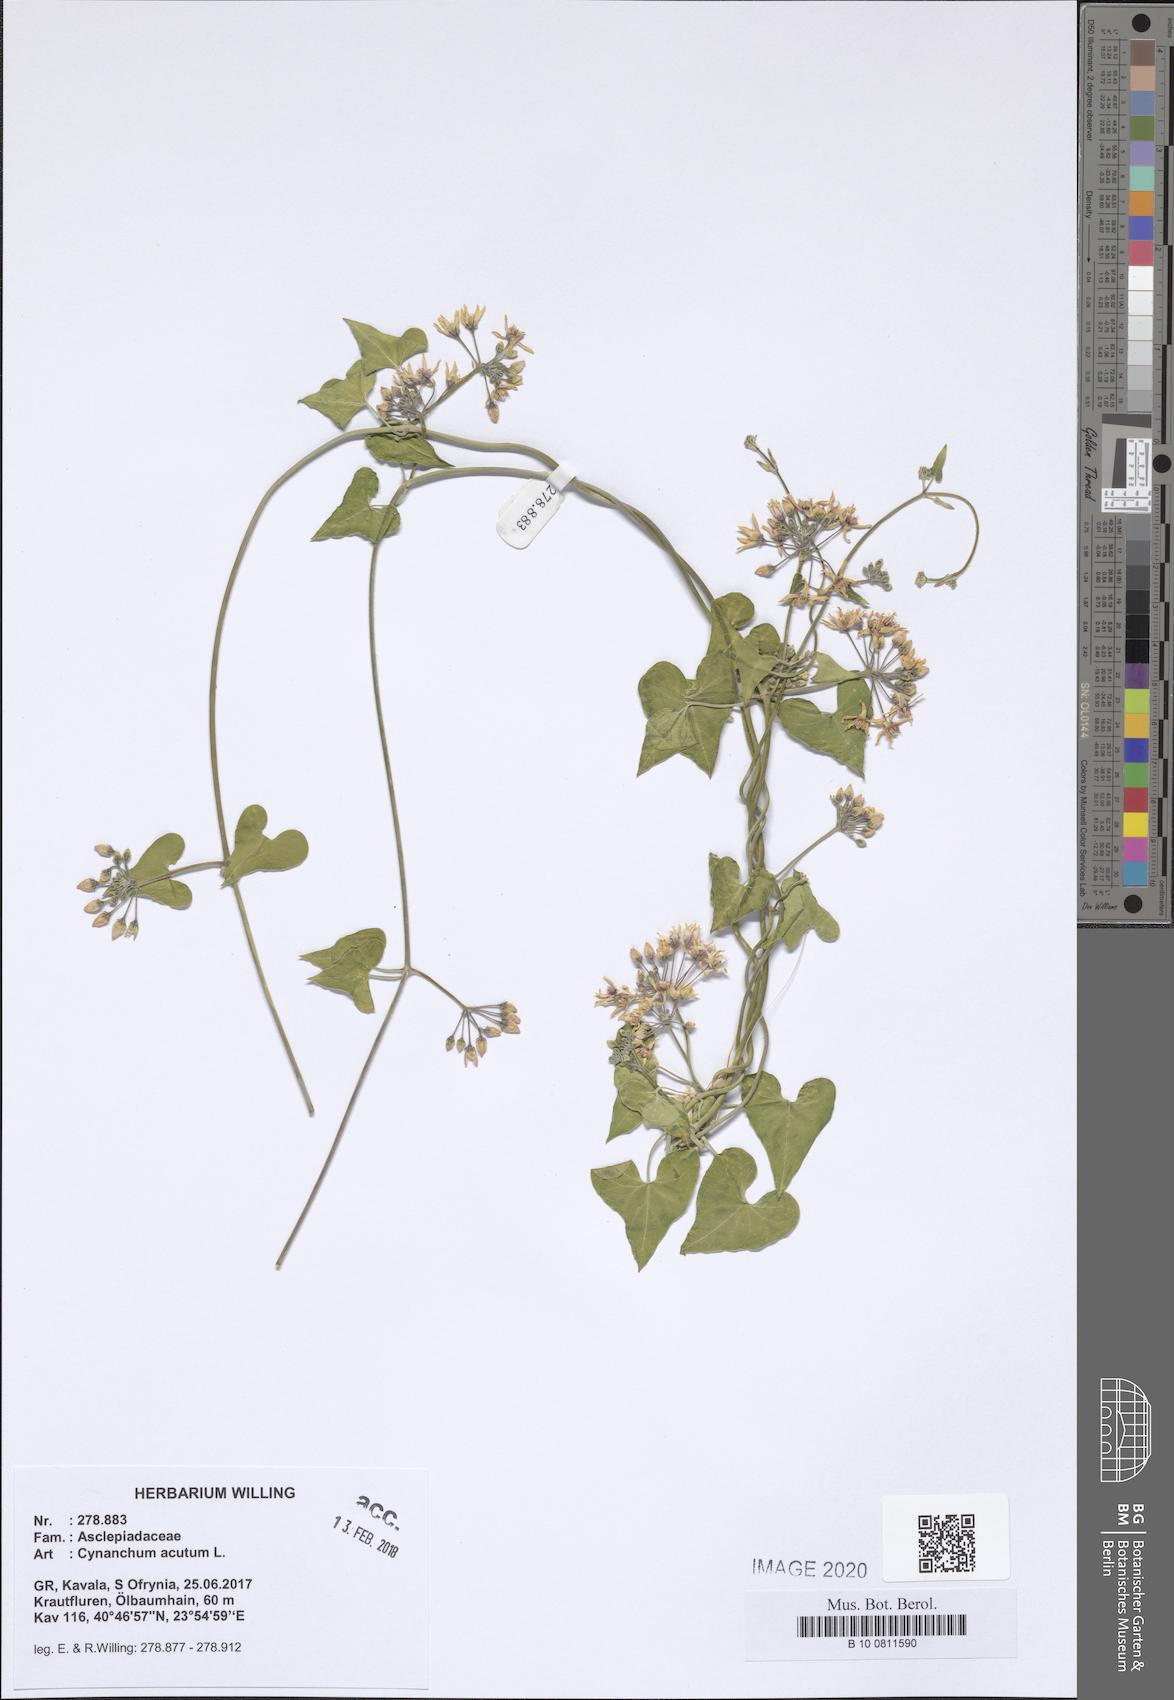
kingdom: Plantae
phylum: Tracheophyta
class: Magnoliopsida
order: Gentianales
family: Apocynaceae
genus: Cynanchum
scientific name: Cynanchum acutum
